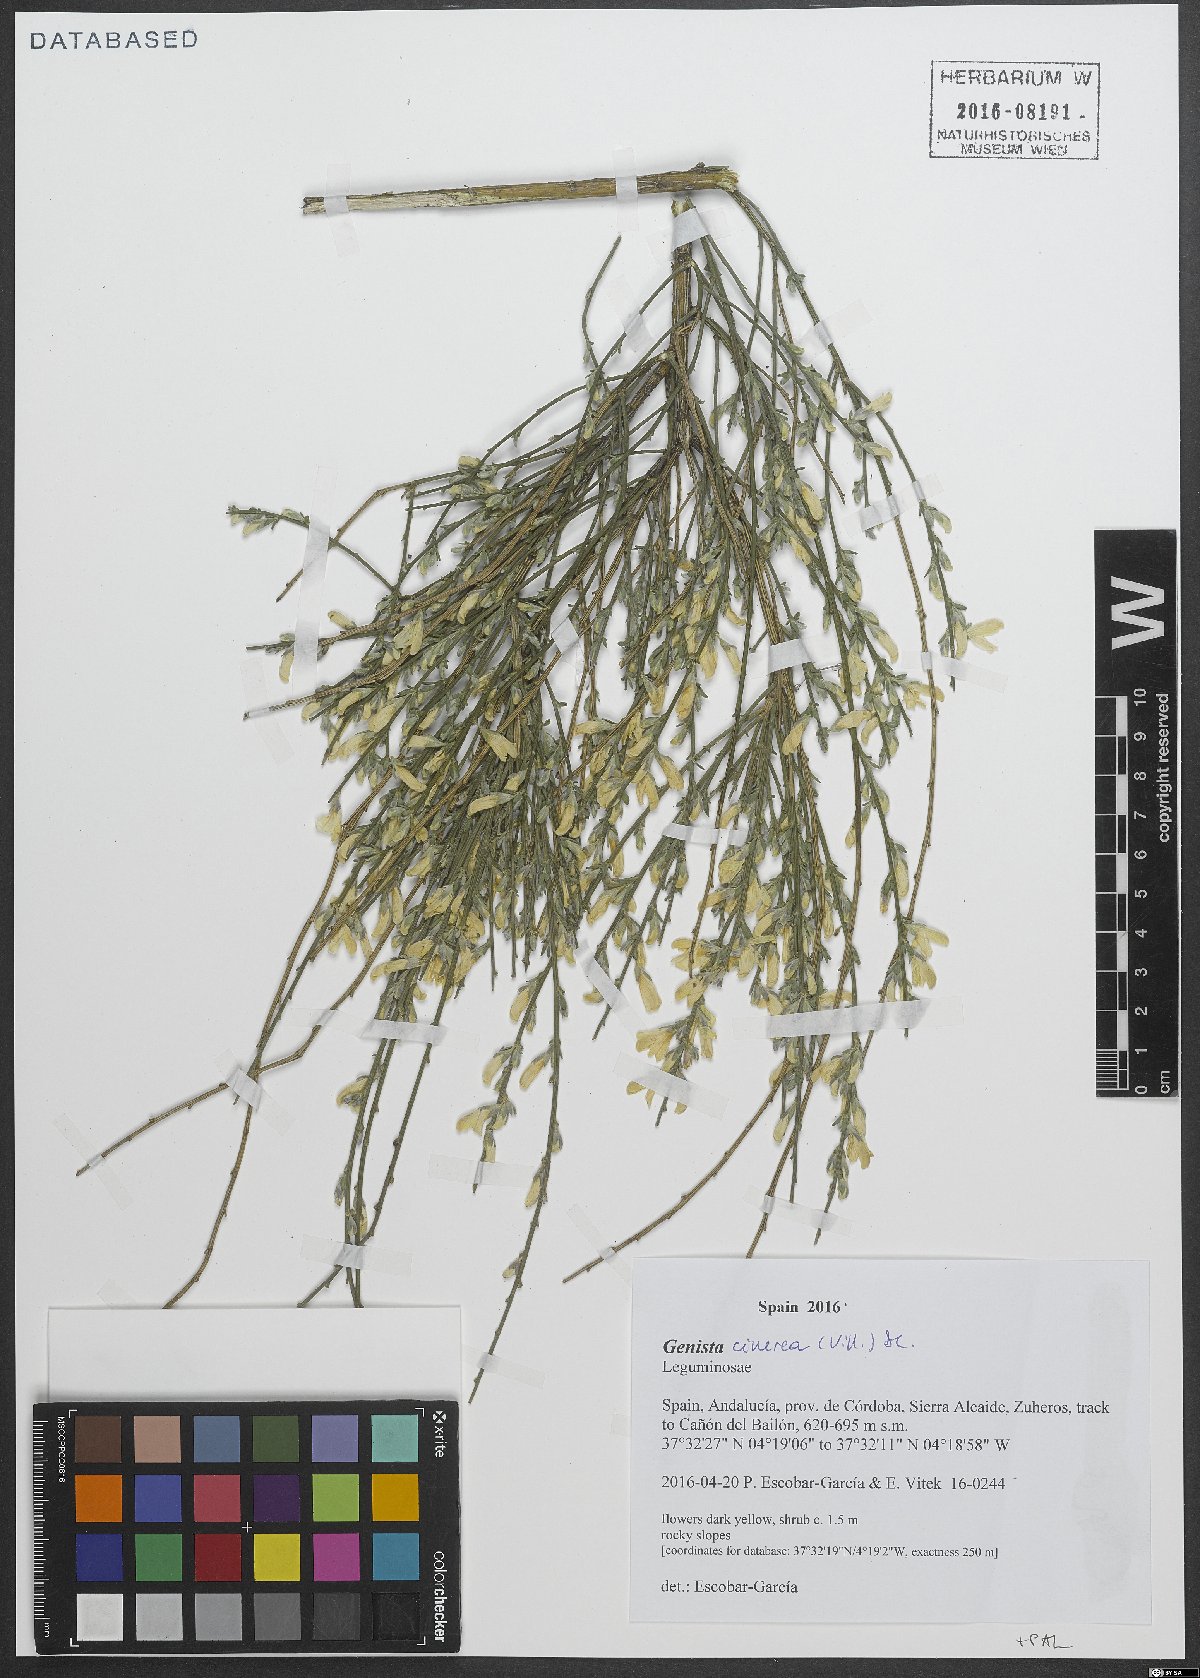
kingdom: Plantae
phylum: Tracheophyta
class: Magnoliopsida
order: Fabales
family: Fabaceae
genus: Genista
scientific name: Genista cinerea
